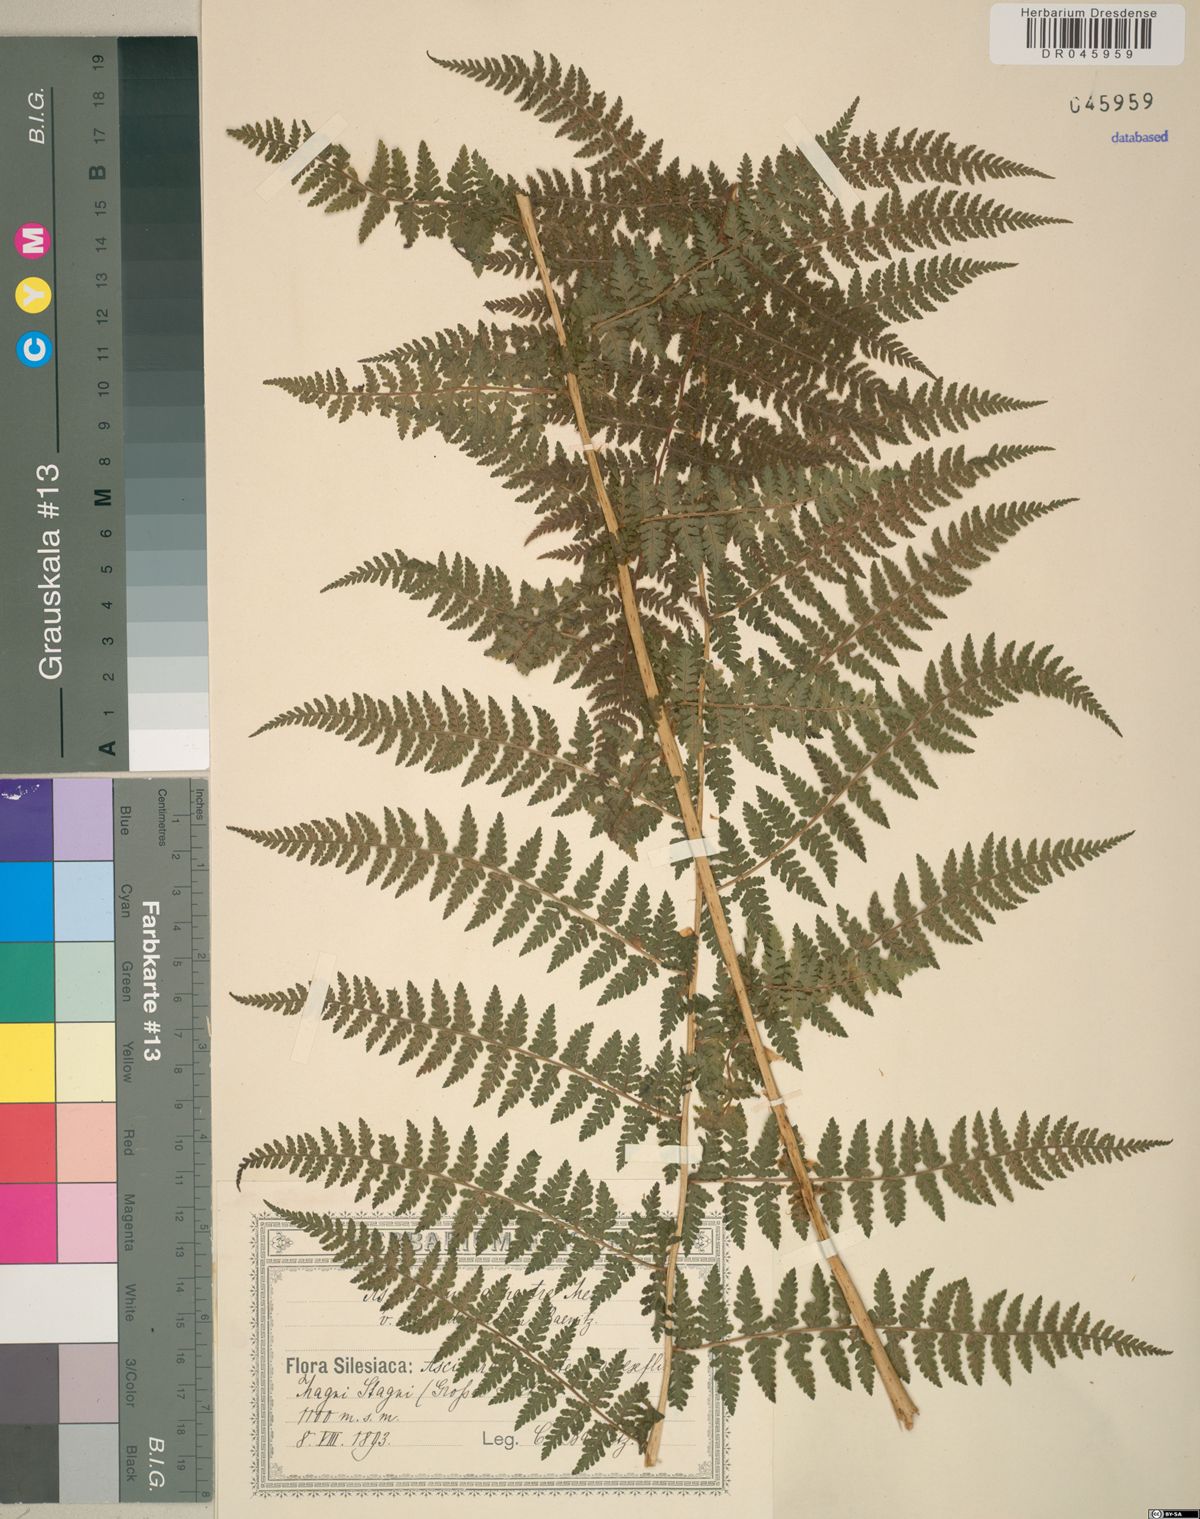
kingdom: Plantae
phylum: Tracheophyta
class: Polypodiopsida
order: Polypodiales
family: Athyriaceae
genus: Diplazium
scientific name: Diplazium pallidum
